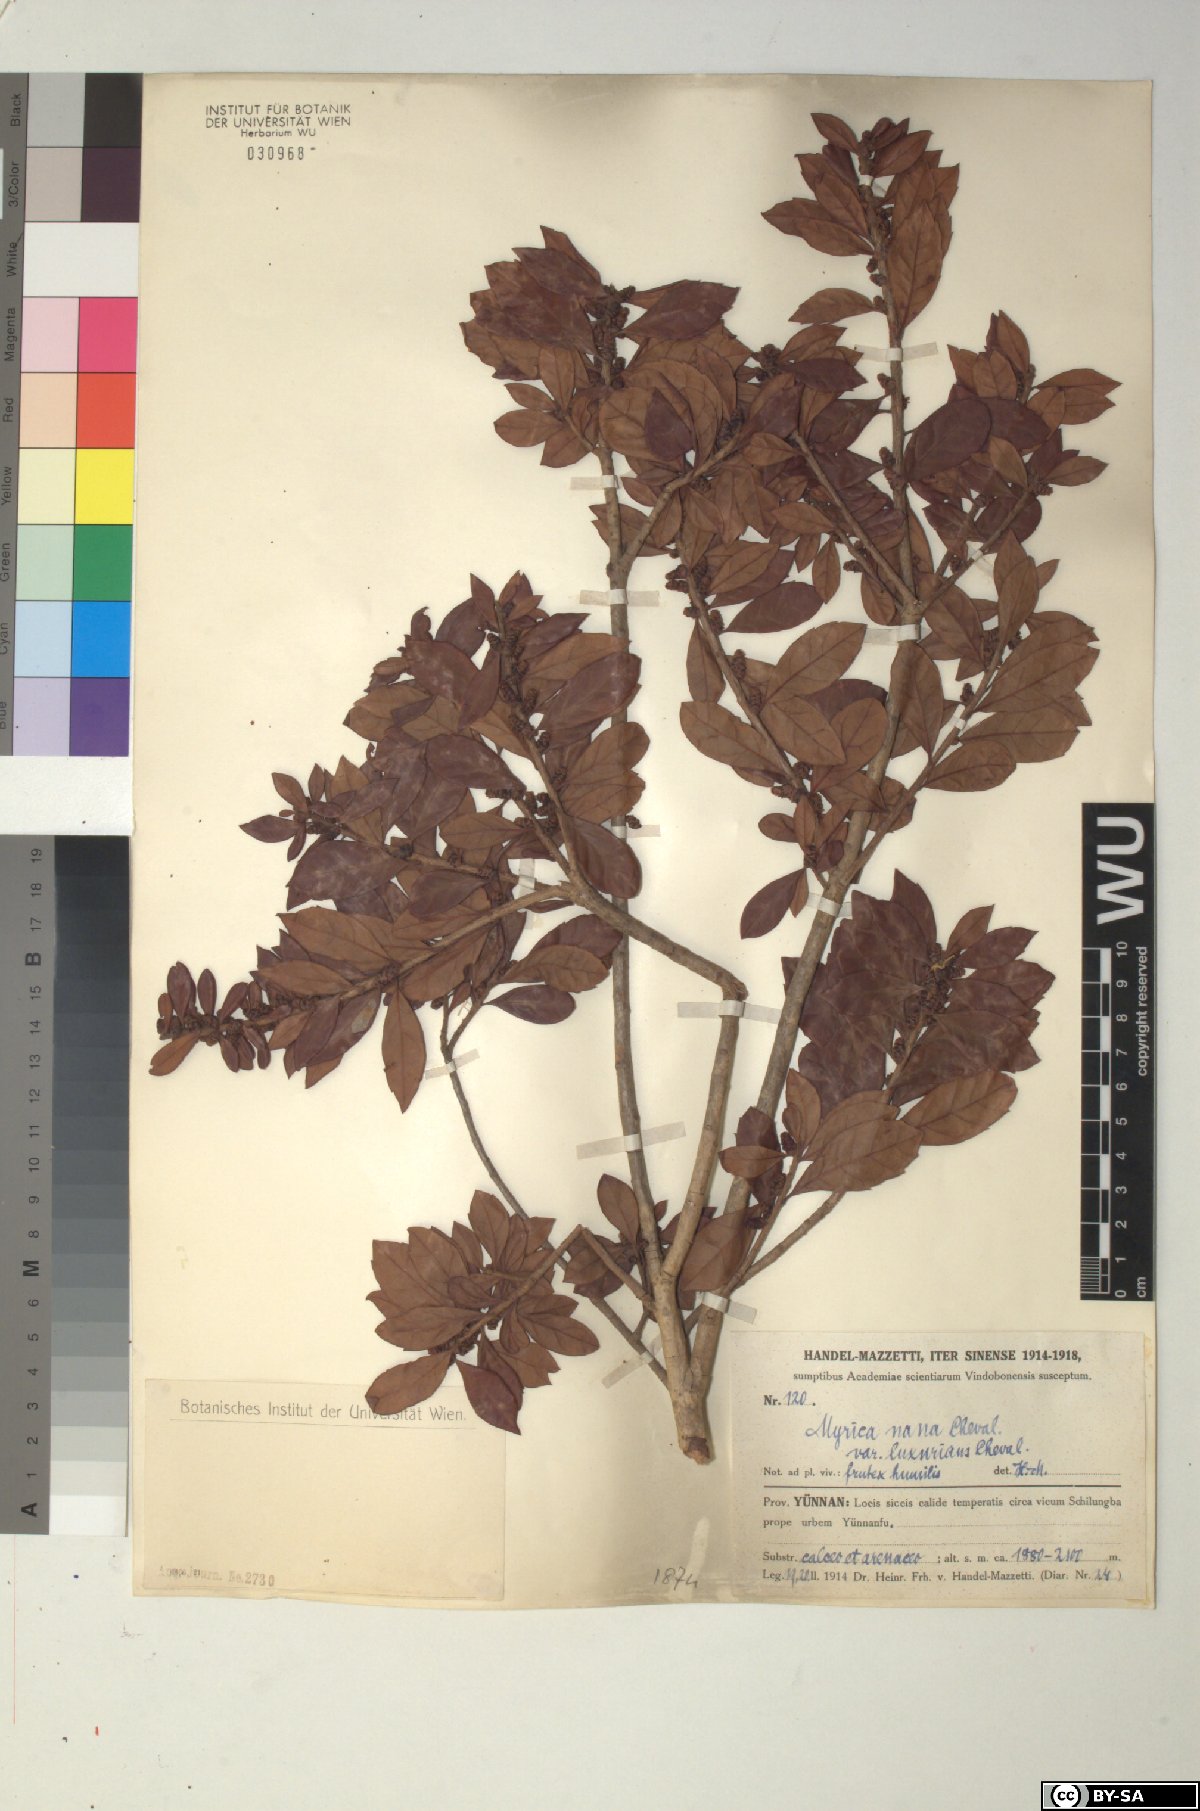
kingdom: Plantae
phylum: Tracheophyta
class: Magnoliopsida
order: Fagales
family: Myricaceae
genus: Morella
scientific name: Morella nana
